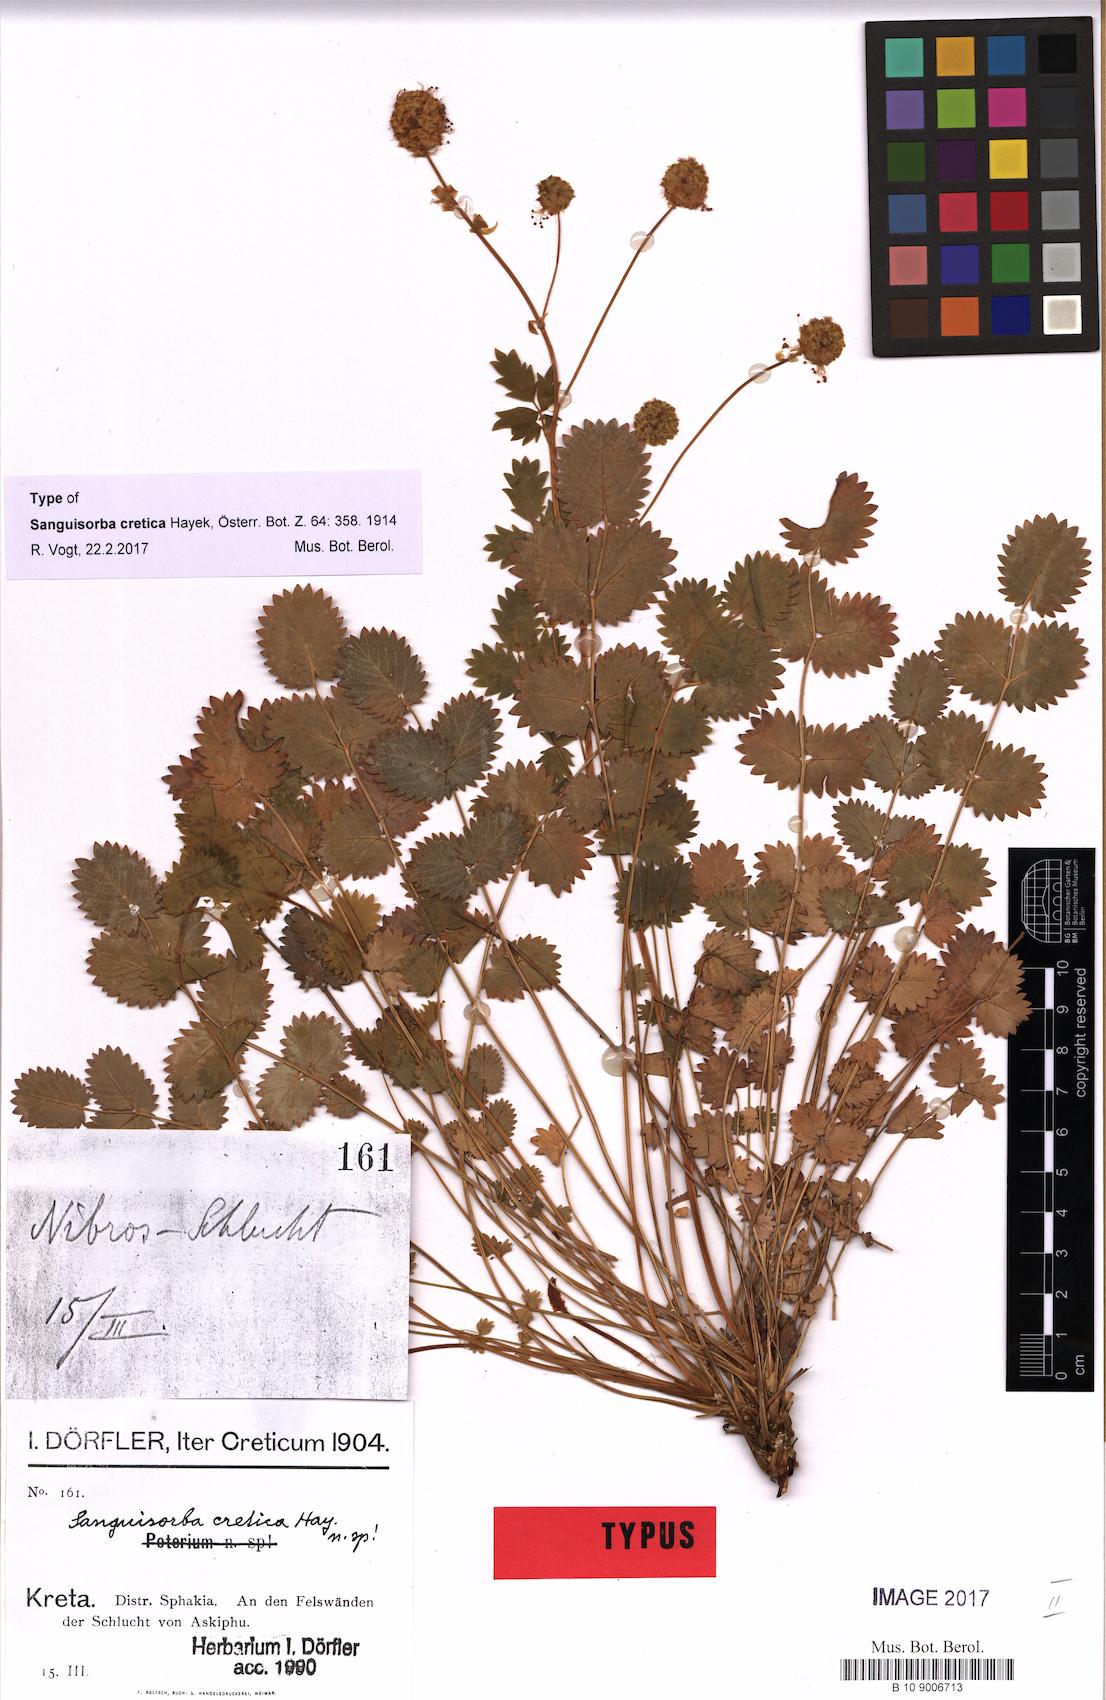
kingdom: Plantae
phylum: Tracheophyta
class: Magnoliopsida
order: Rosales
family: Rosaceae
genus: Poterium
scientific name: Poterium creticum
